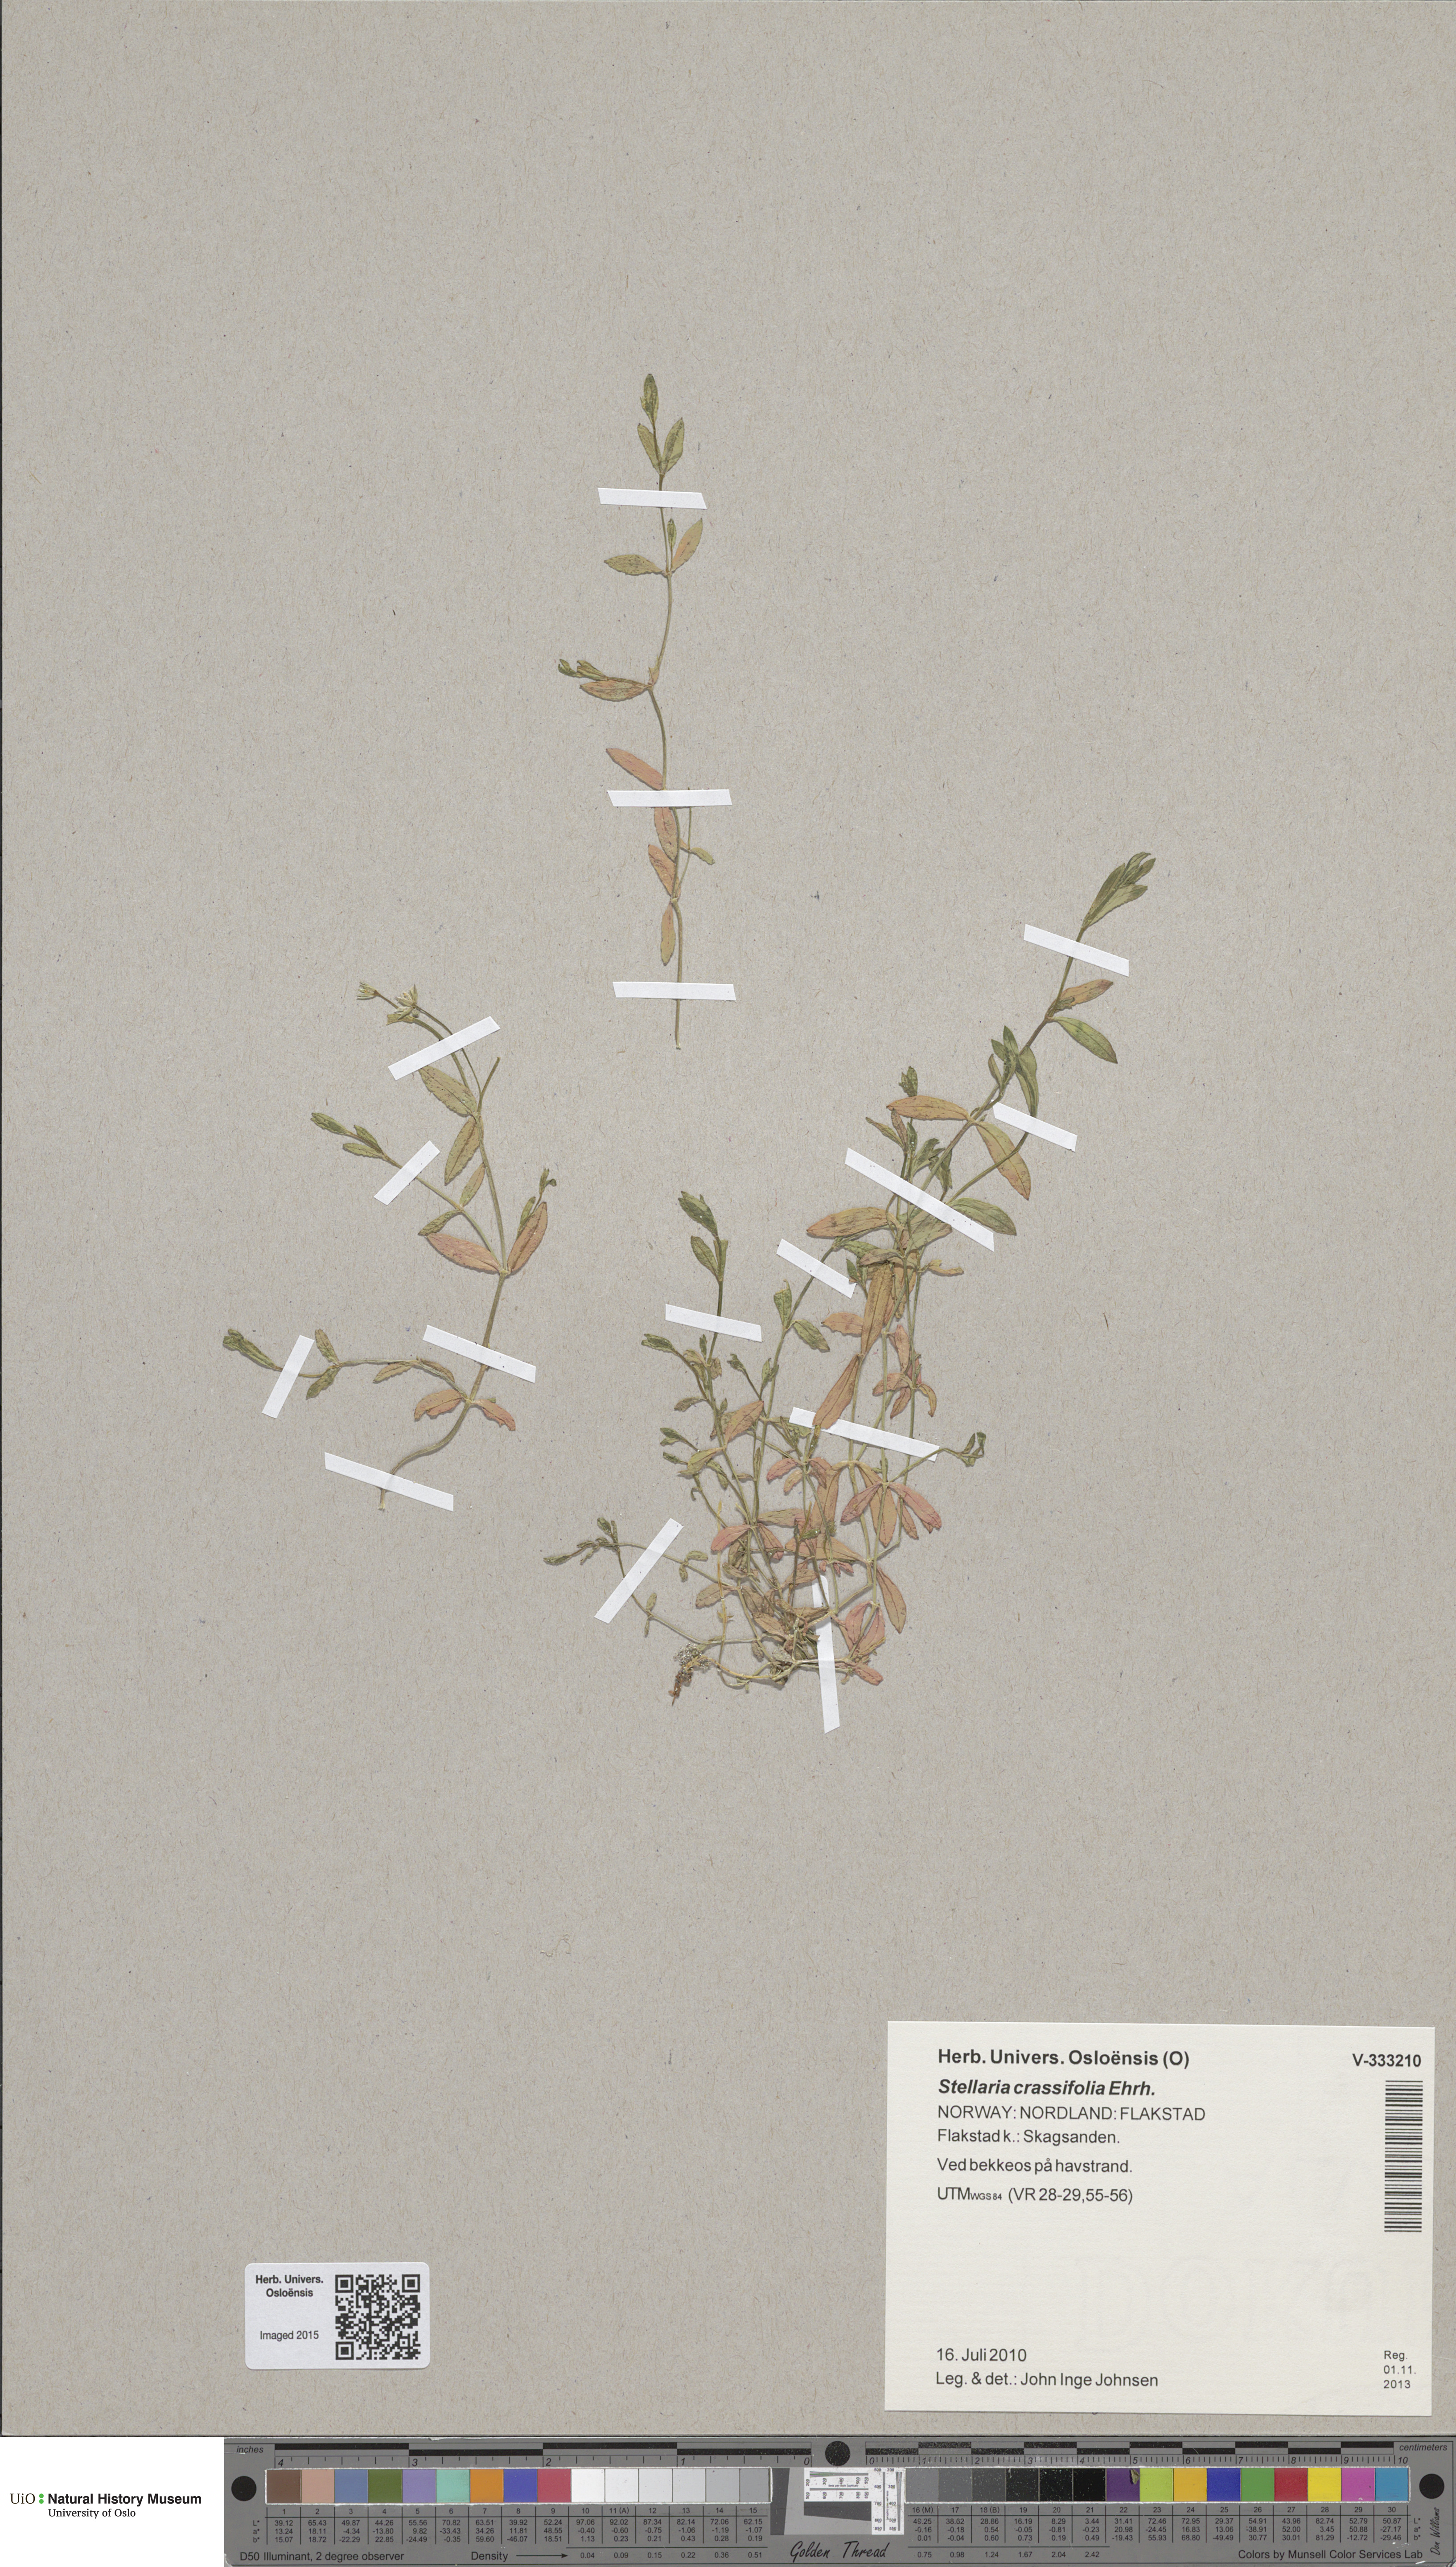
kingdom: Plantae
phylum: Tracheophyta
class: Magnoliopsida
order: Caryophyllales
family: Caryophyllaceae
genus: Stellaria
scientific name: Stellaria crassifolia
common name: Fleshy starwort
